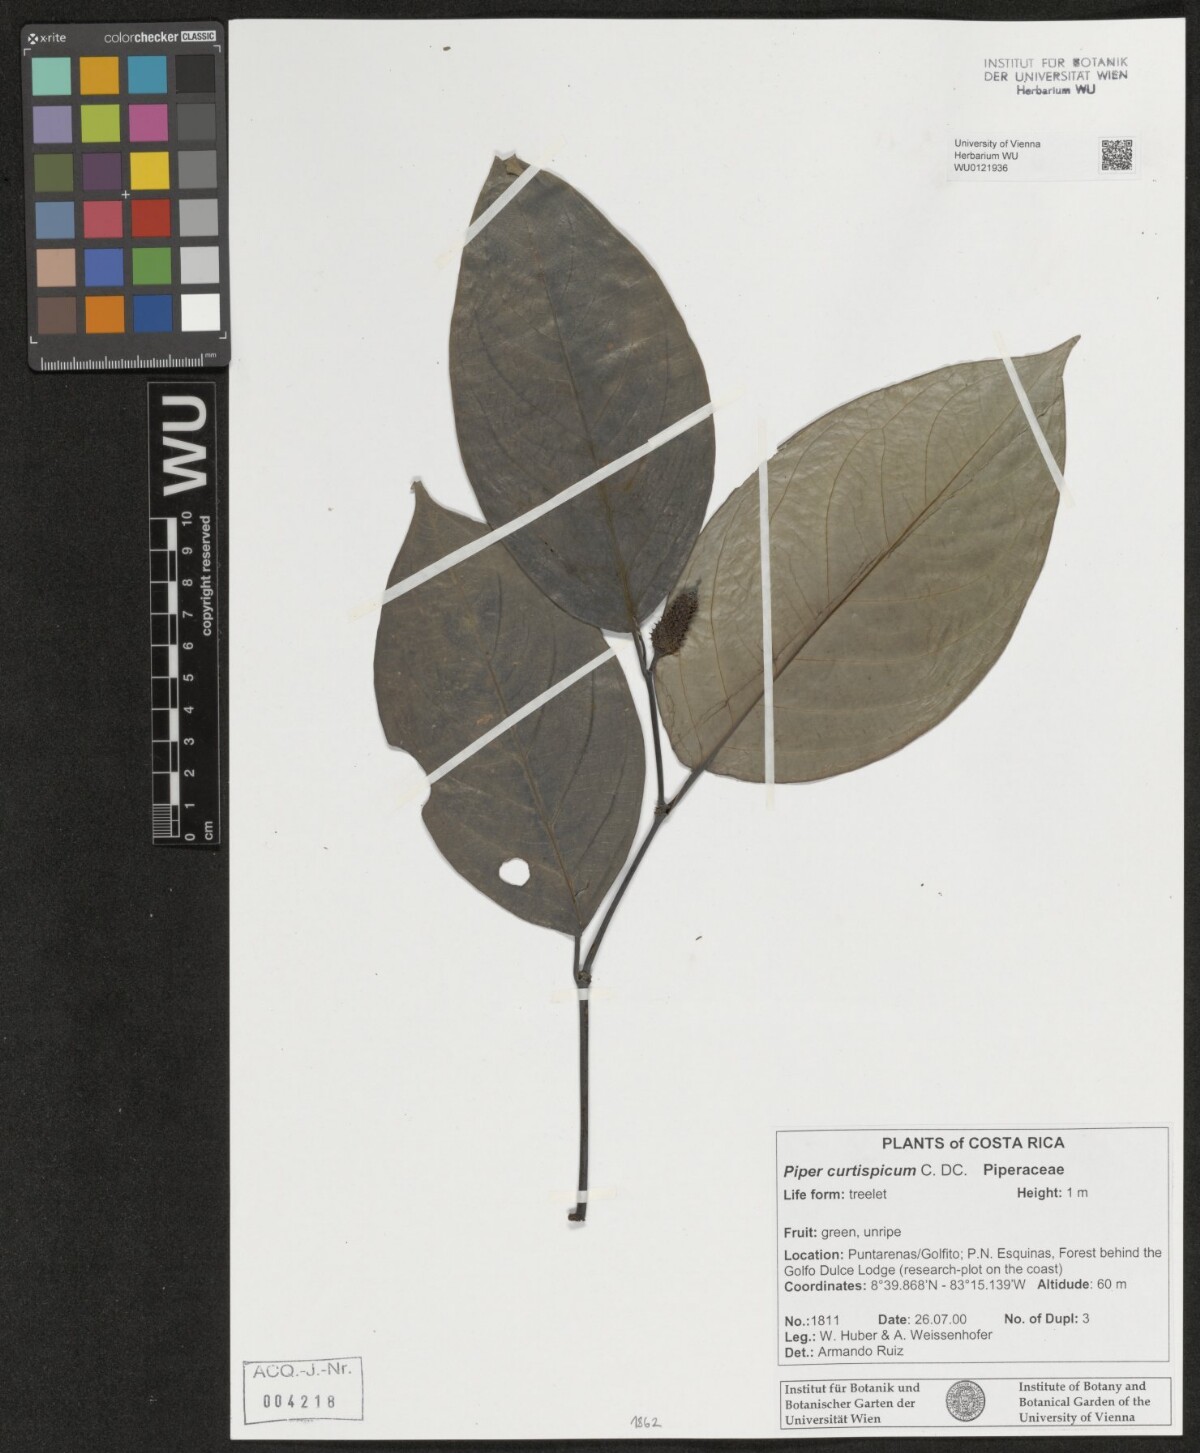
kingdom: Plantae
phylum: Tracheophyta
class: Magnoliopsida
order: Piperales
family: Piperaceae
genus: Piper
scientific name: Piper curtispicum
